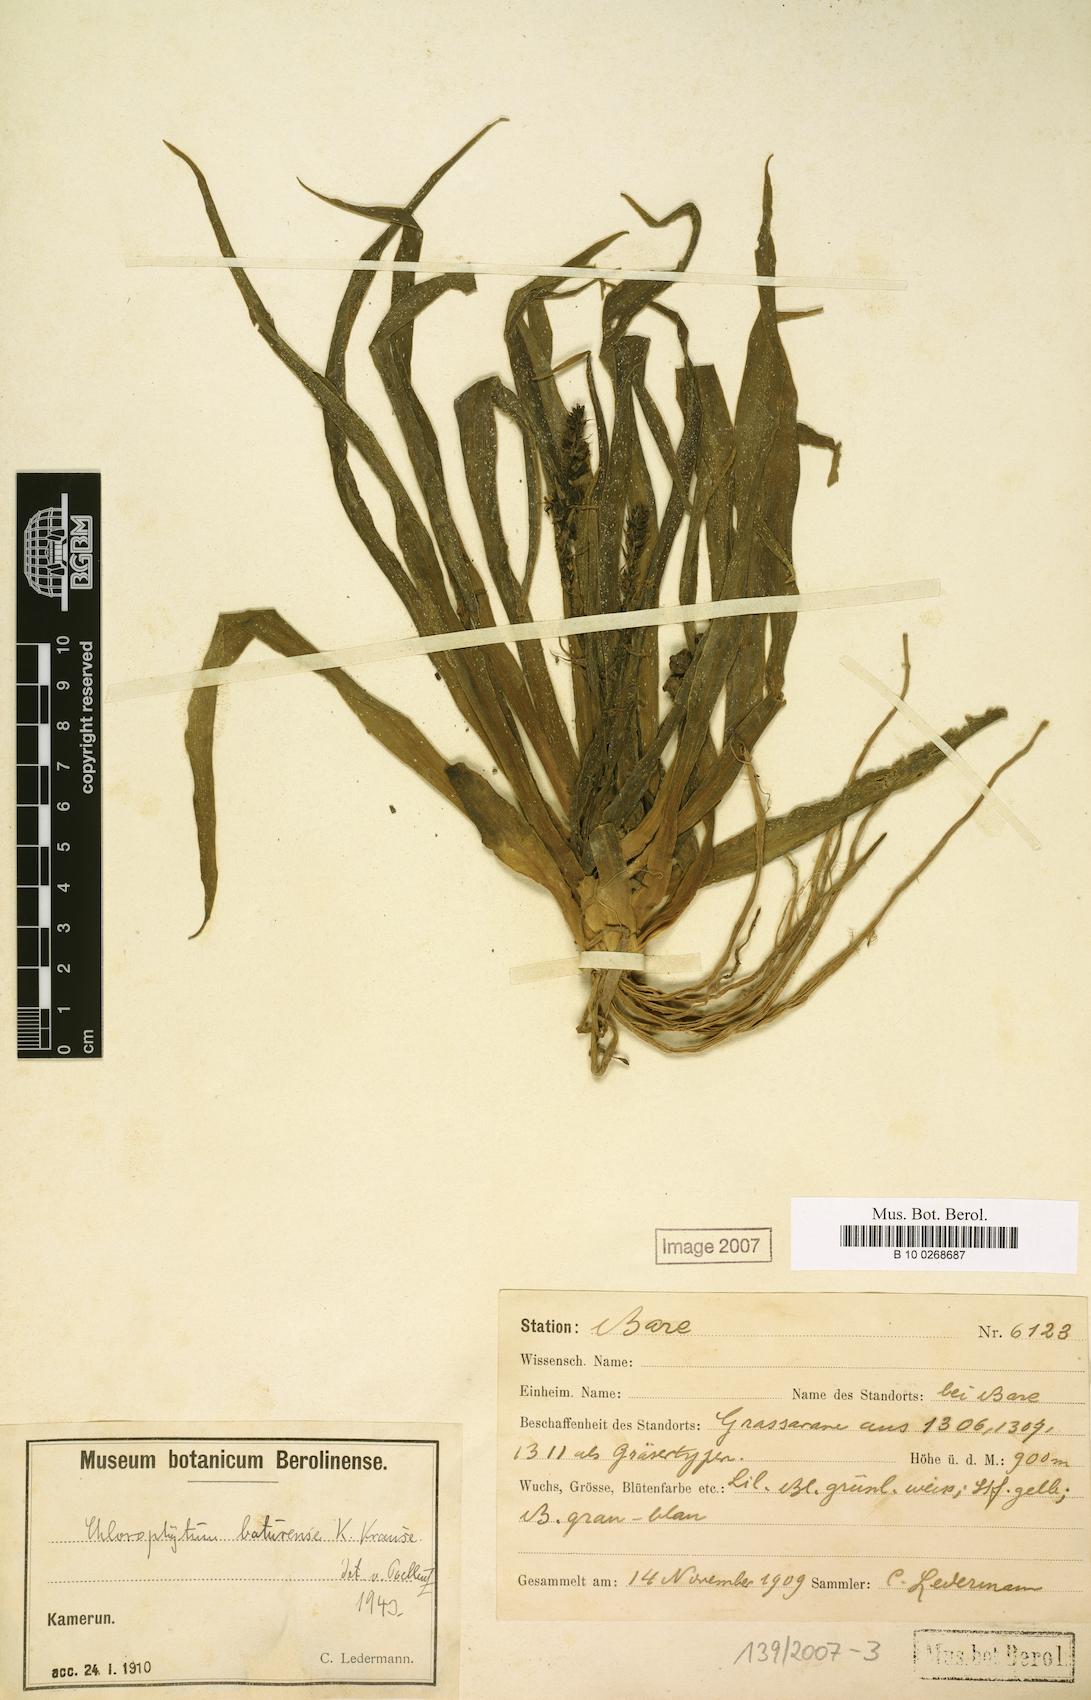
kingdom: Plantae
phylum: Tracheophyta
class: Liliopsida
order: Asparagales
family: Asparagaceae
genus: Chlorophytum
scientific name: Chlorophytum camporum
